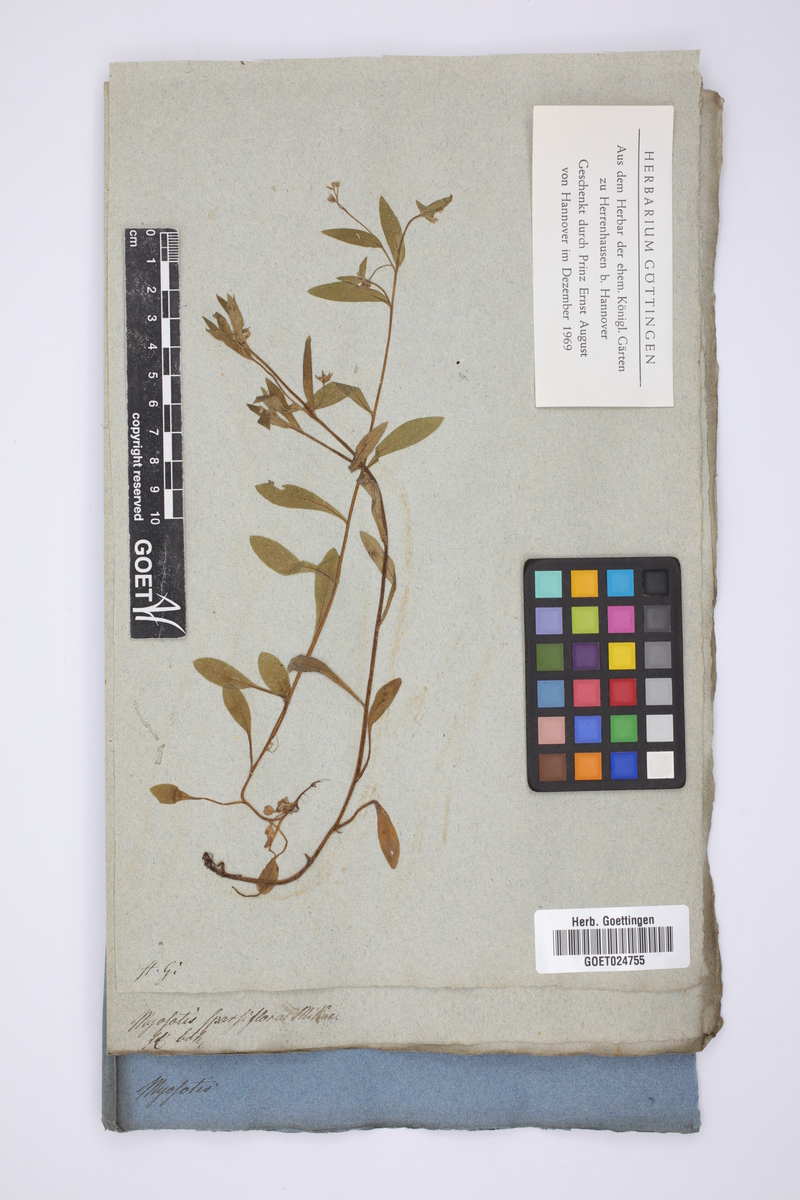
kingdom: Plantae
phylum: Tracheophyta
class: Magnoliopsida
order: Boraginales
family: Boraginaceae
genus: Myosotis
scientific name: Myosotis sparsiflora
